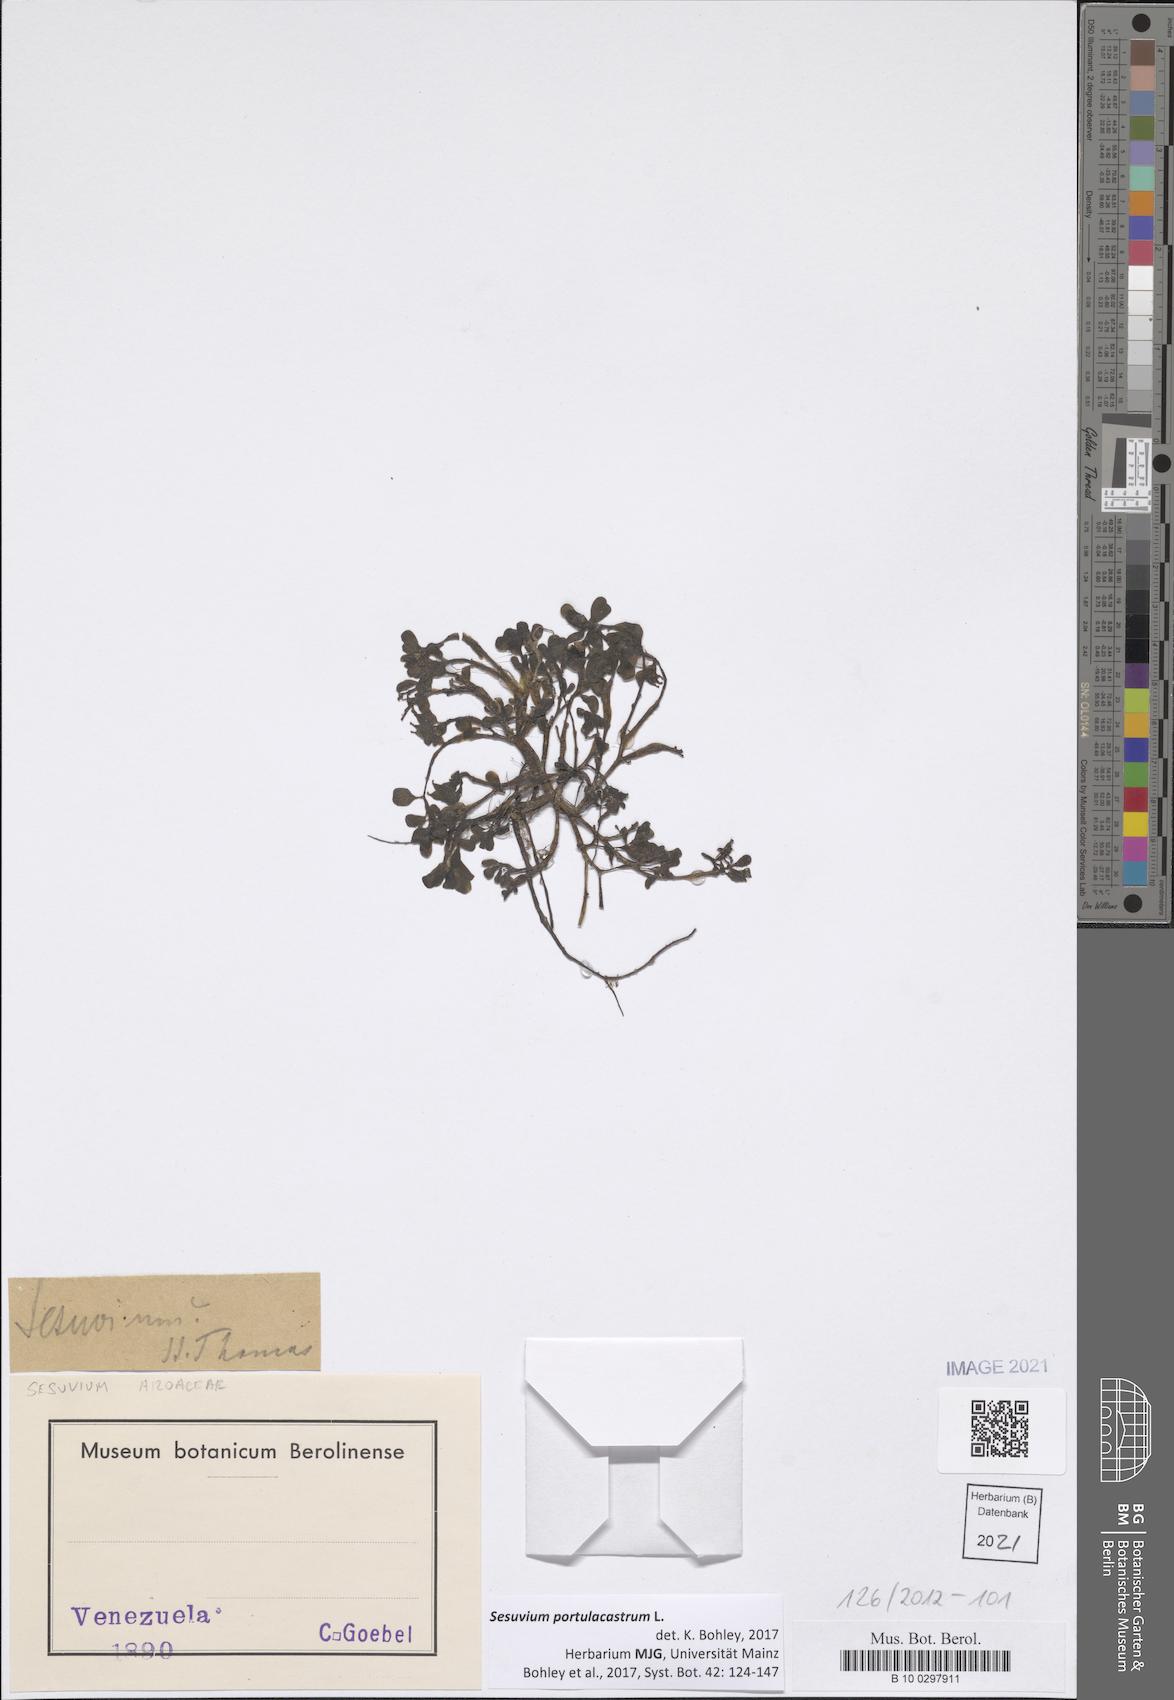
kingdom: Plantae
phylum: Tracheophyta
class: Magnoliopsida
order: Caryophyllales
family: Aizoaceae
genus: Sesuvium
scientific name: Sesuvium portulacastrum
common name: Sea-purslane
